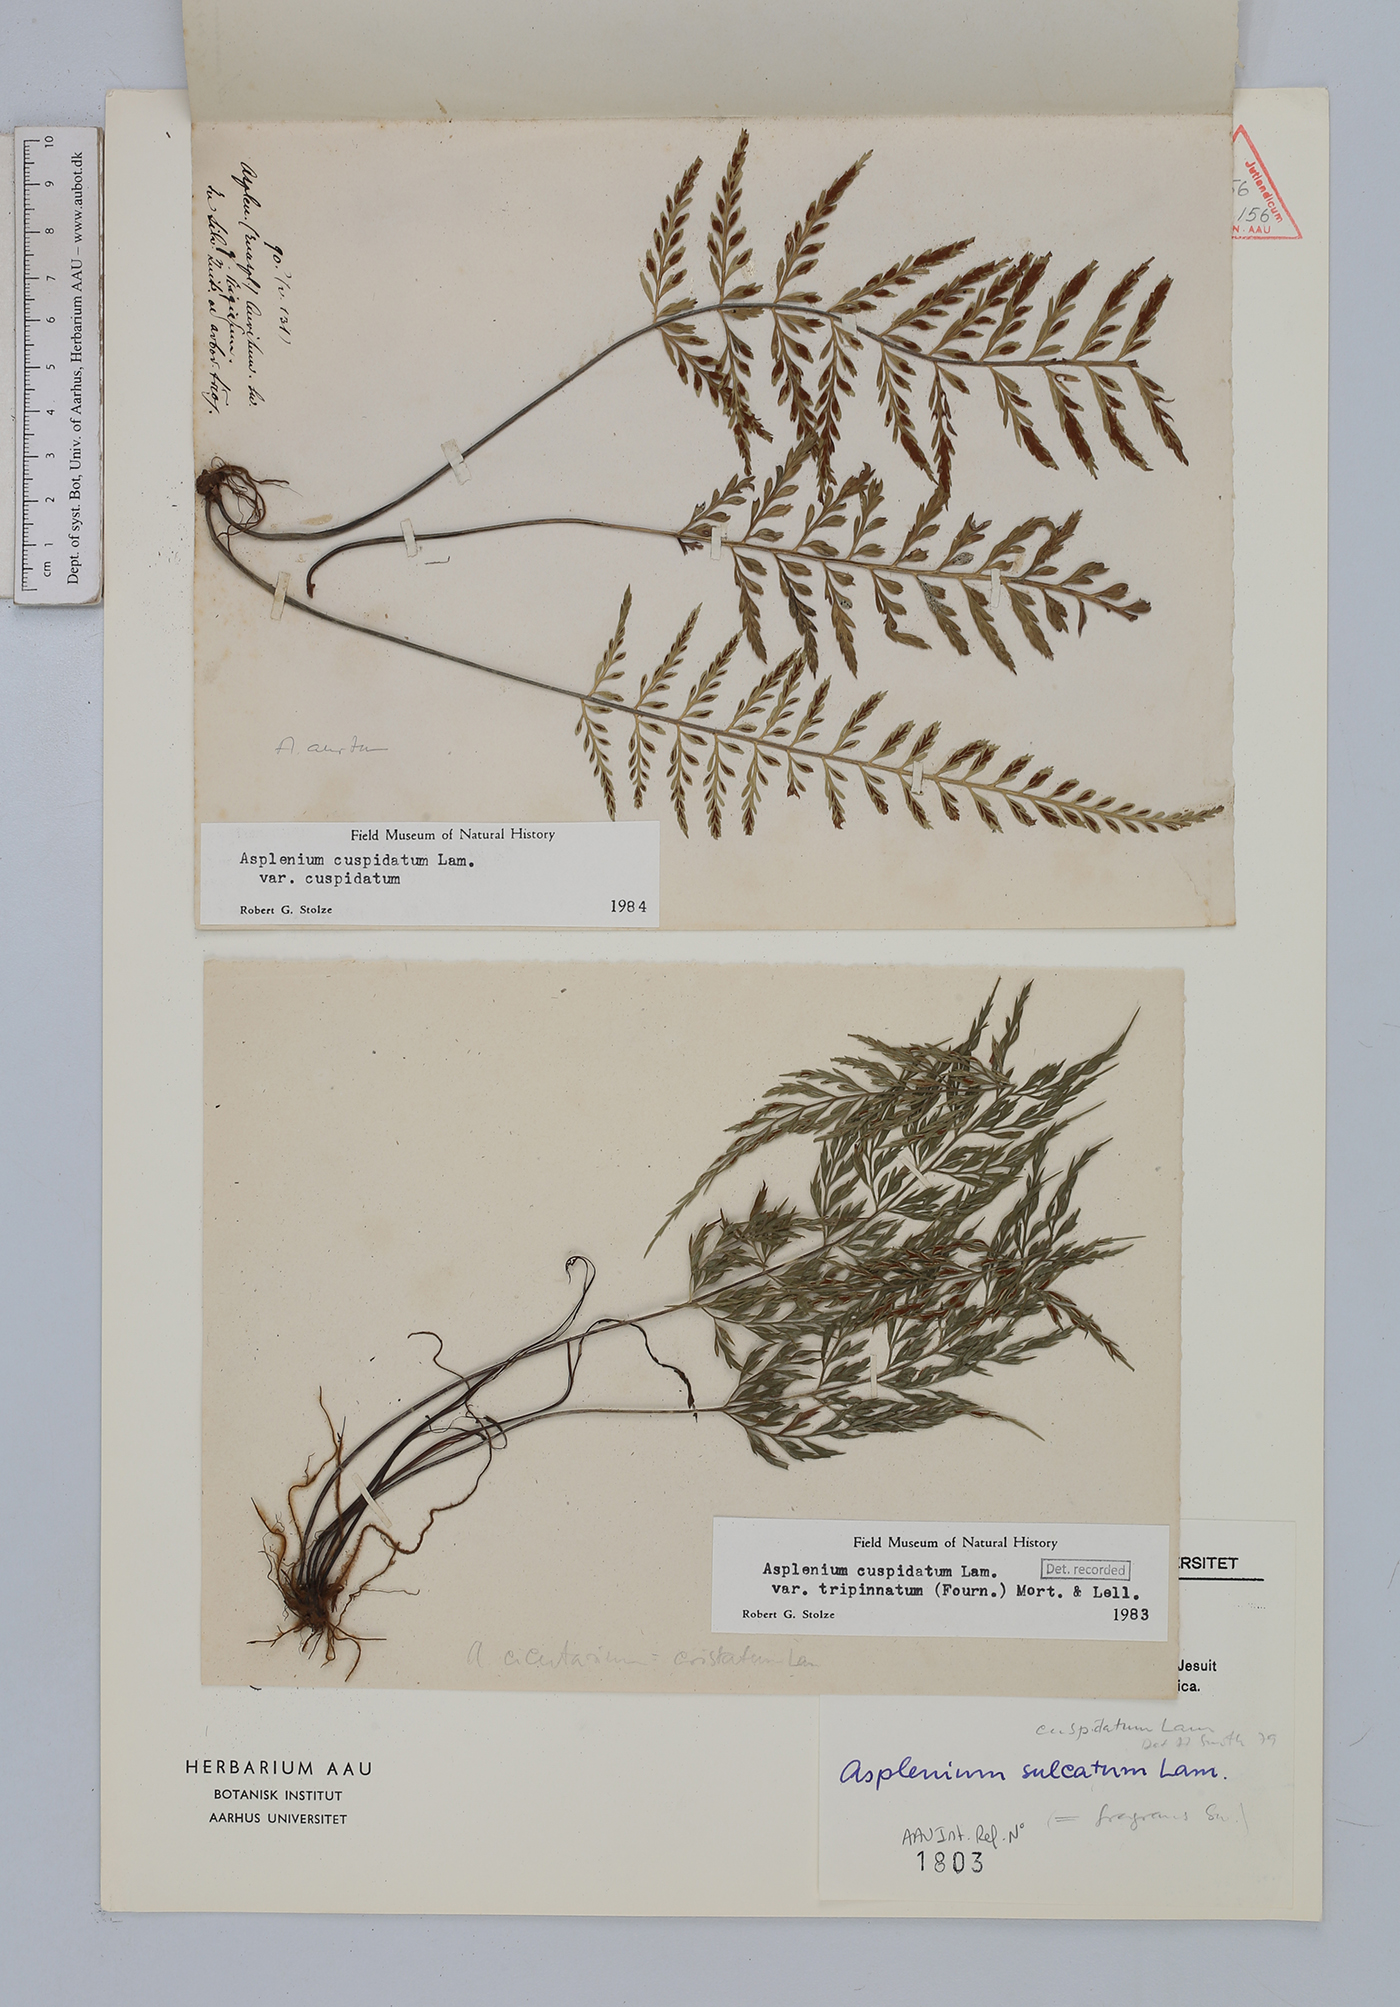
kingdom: Plantae
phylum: Tracheophyta
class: Polypodiopsida
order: Polypodiales
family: Aspleniaceae
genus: Asplenium
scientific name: Asplenium fragrans
